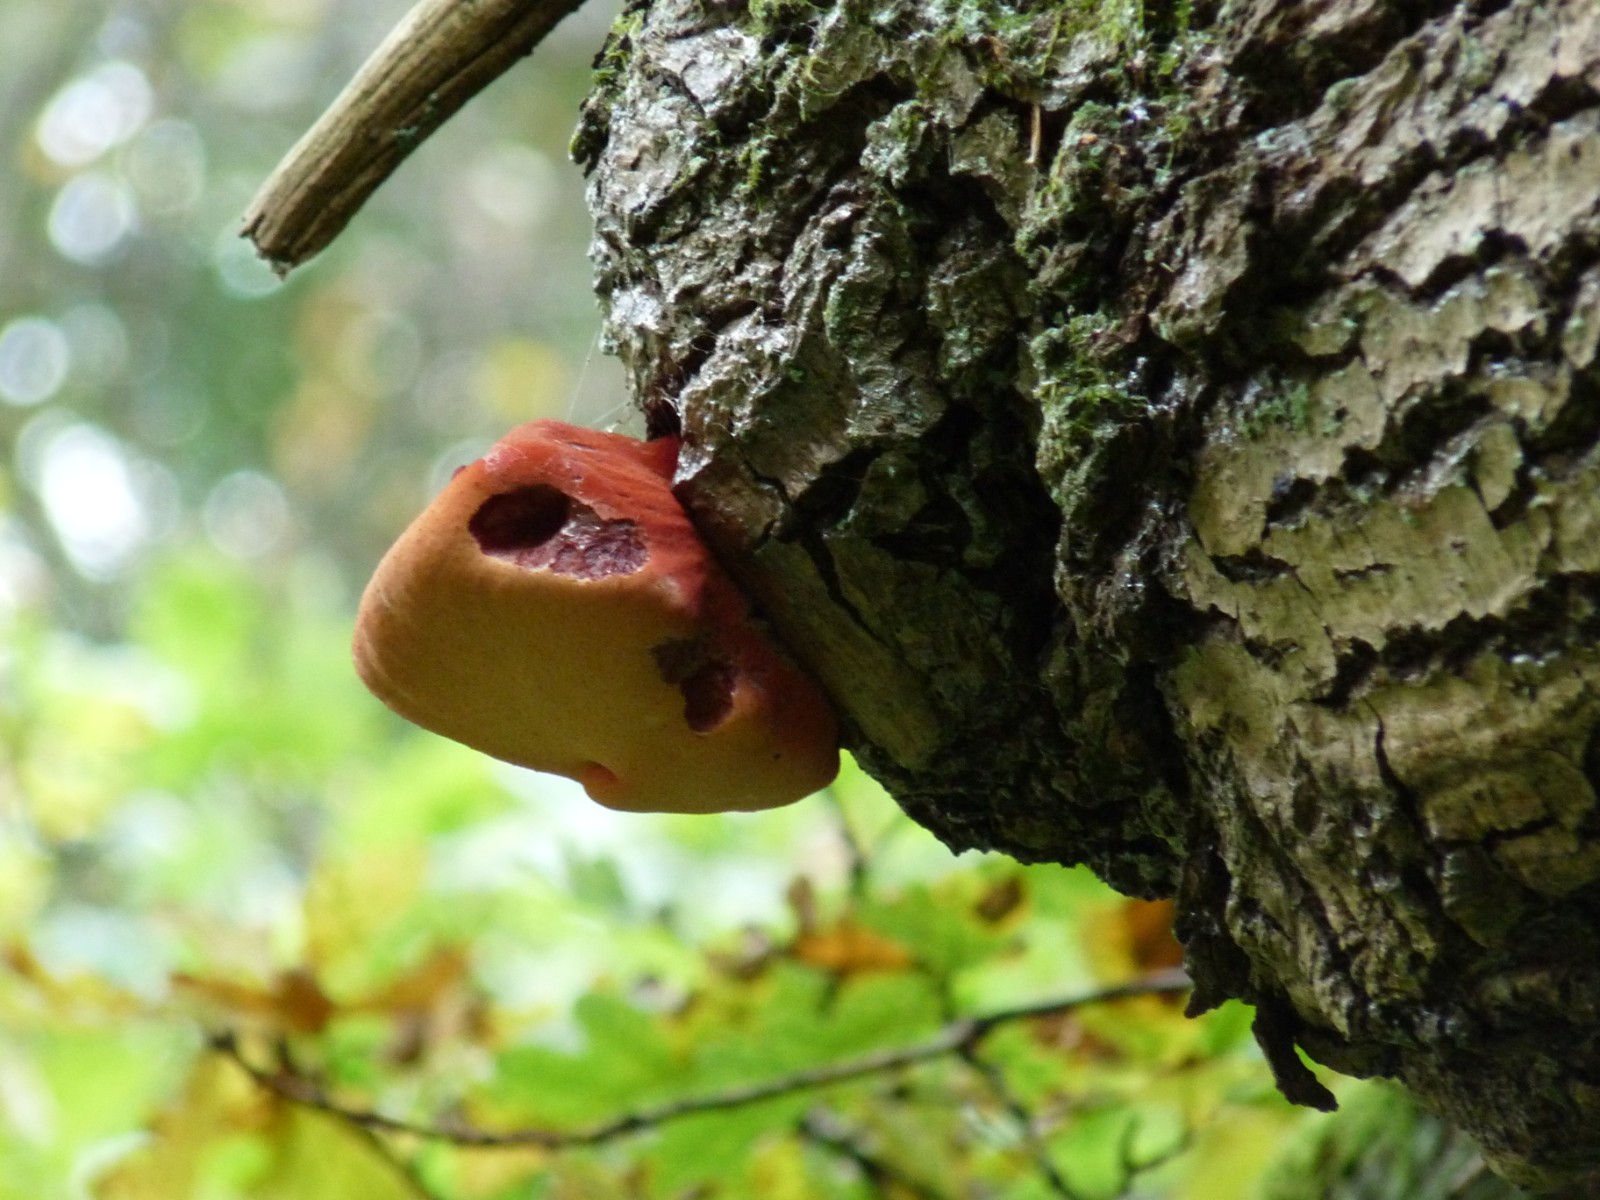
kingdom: Fungi
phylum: Basidiomycota
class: Agaricomycetes
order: Agaricales
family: Fistulinaceae
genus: Fistulina
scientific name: Fistulina hepatica
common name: oksetunge
